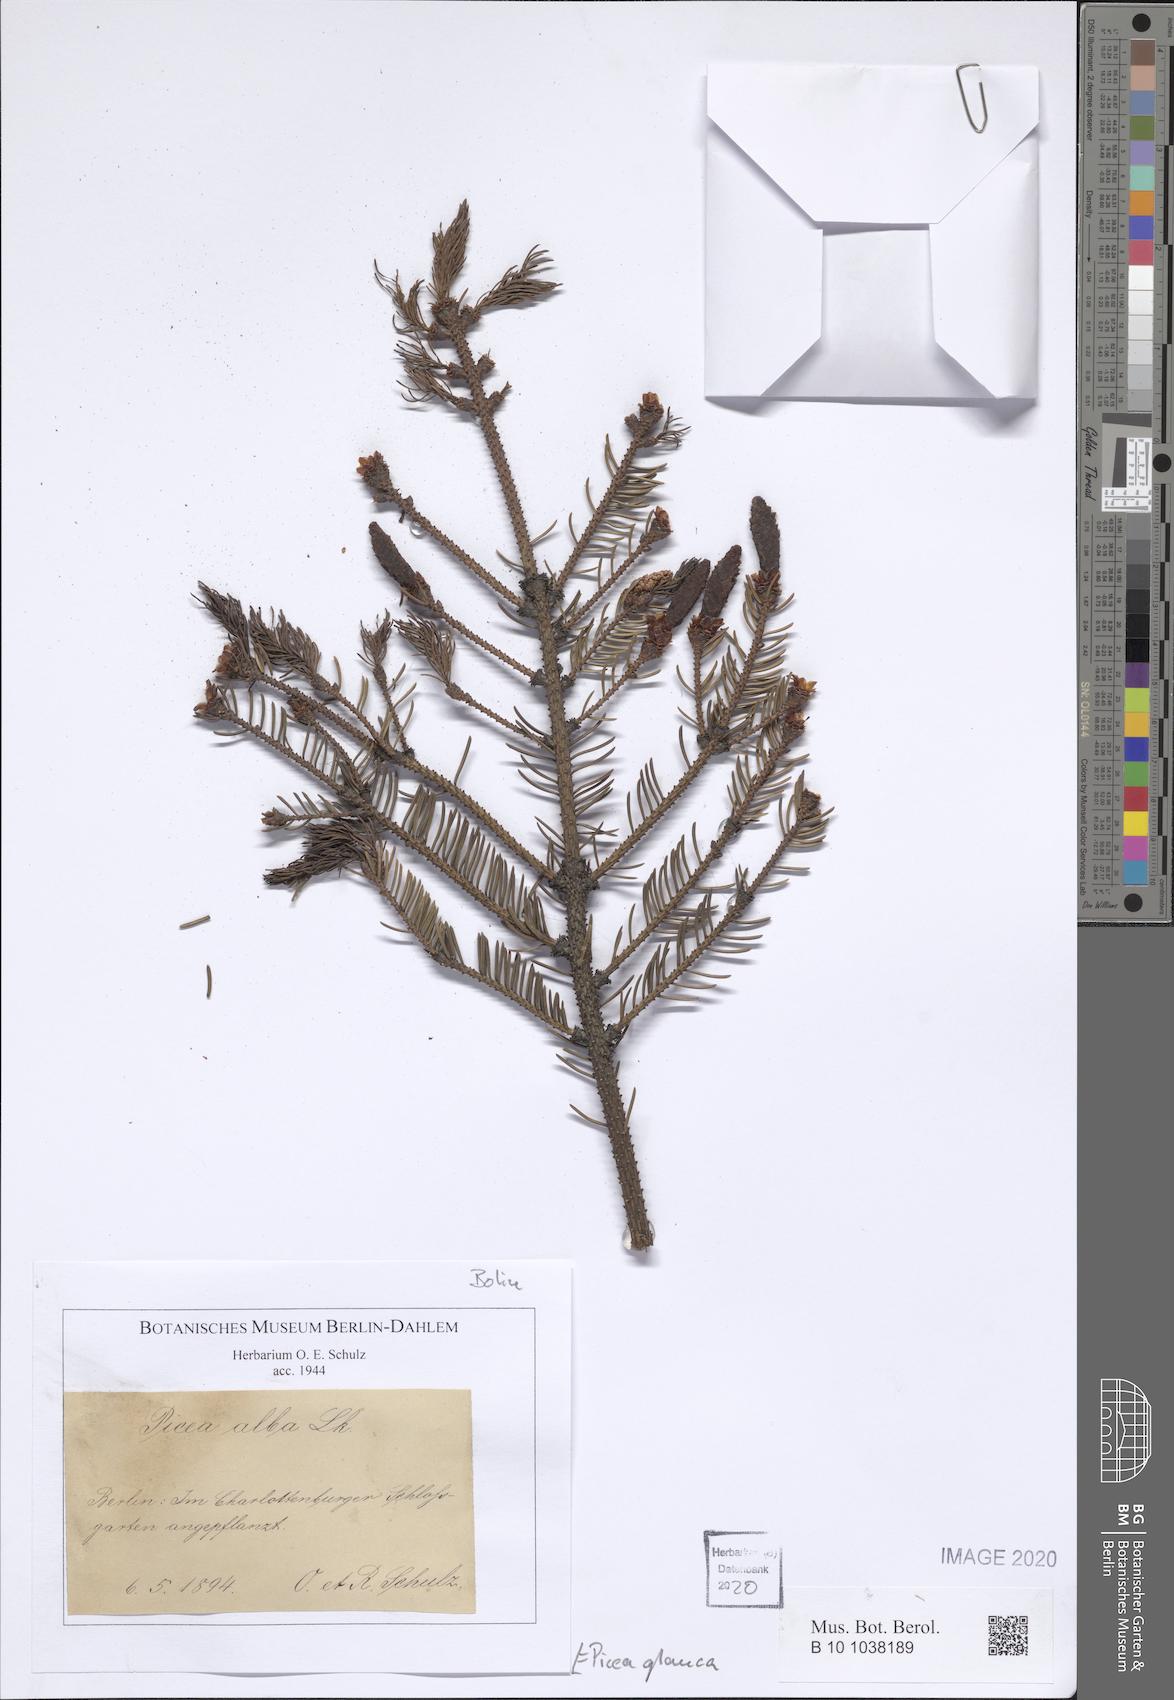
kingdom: Plantae
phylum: Tracheophyta
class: Pinopsida
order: Pinales
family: Pinaceae
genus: Picea
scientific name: Picea glauca
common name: White spruce
